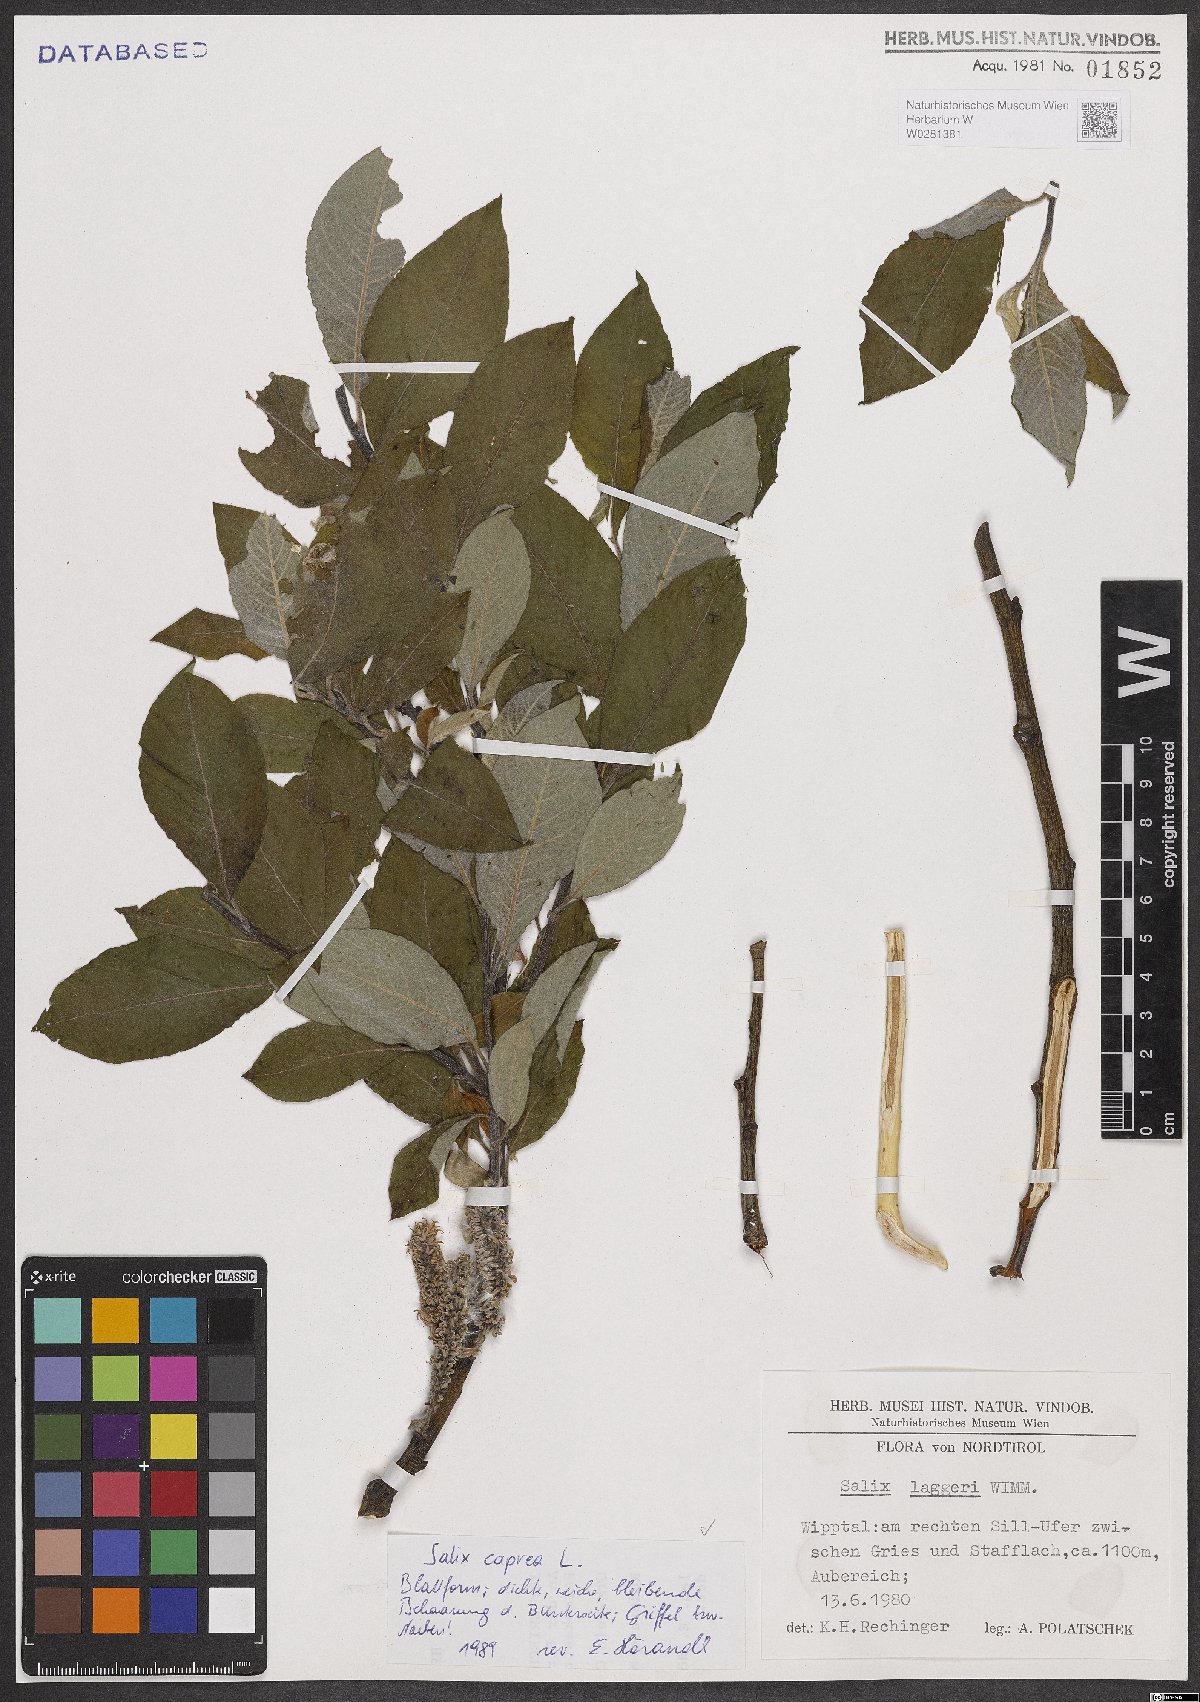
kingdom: Plantae
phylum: Tracheophyta
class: Magnoliopsida
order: Malpighiales
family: Salicaceae
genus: Salix
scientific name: Salix caprea
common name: Goat willow
